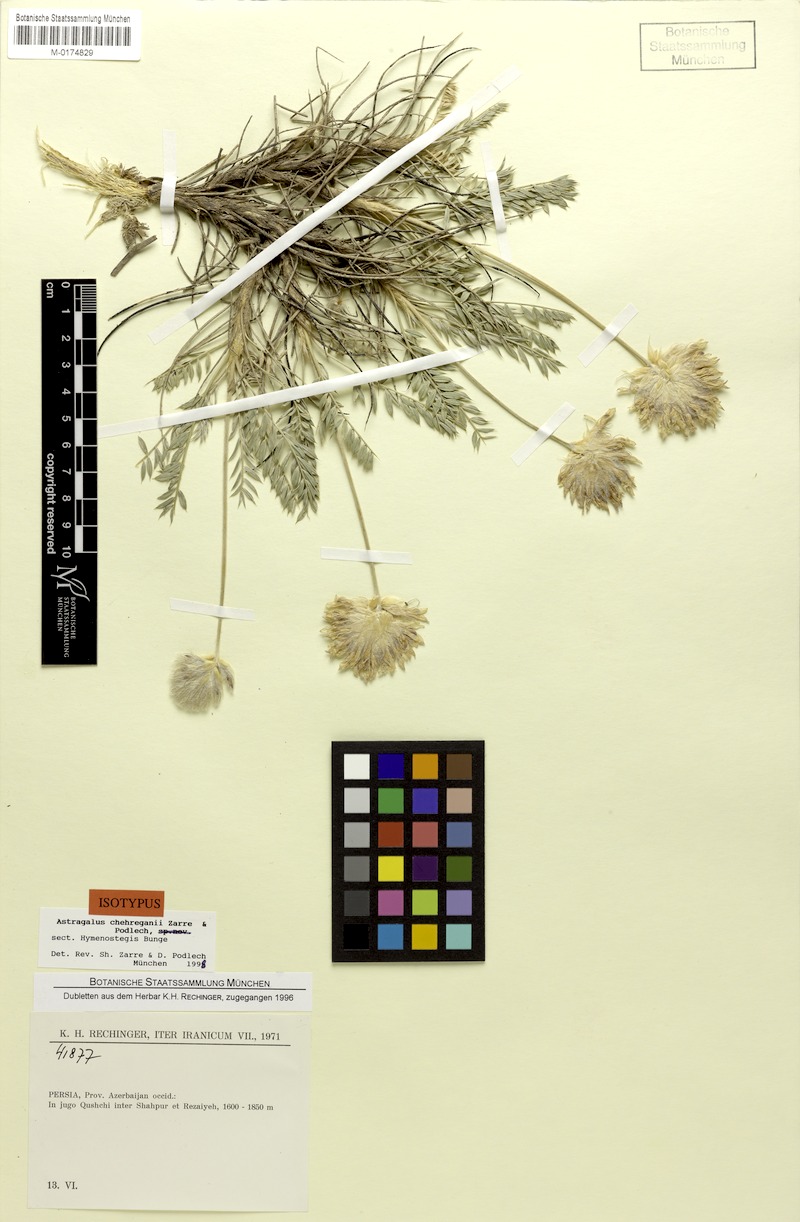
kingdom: Plantae
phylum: Tracheophyta
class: Magnoliopsida
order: Fabales
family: Fabaceae
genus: Astragalus
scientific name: Astragalus chehreganii
